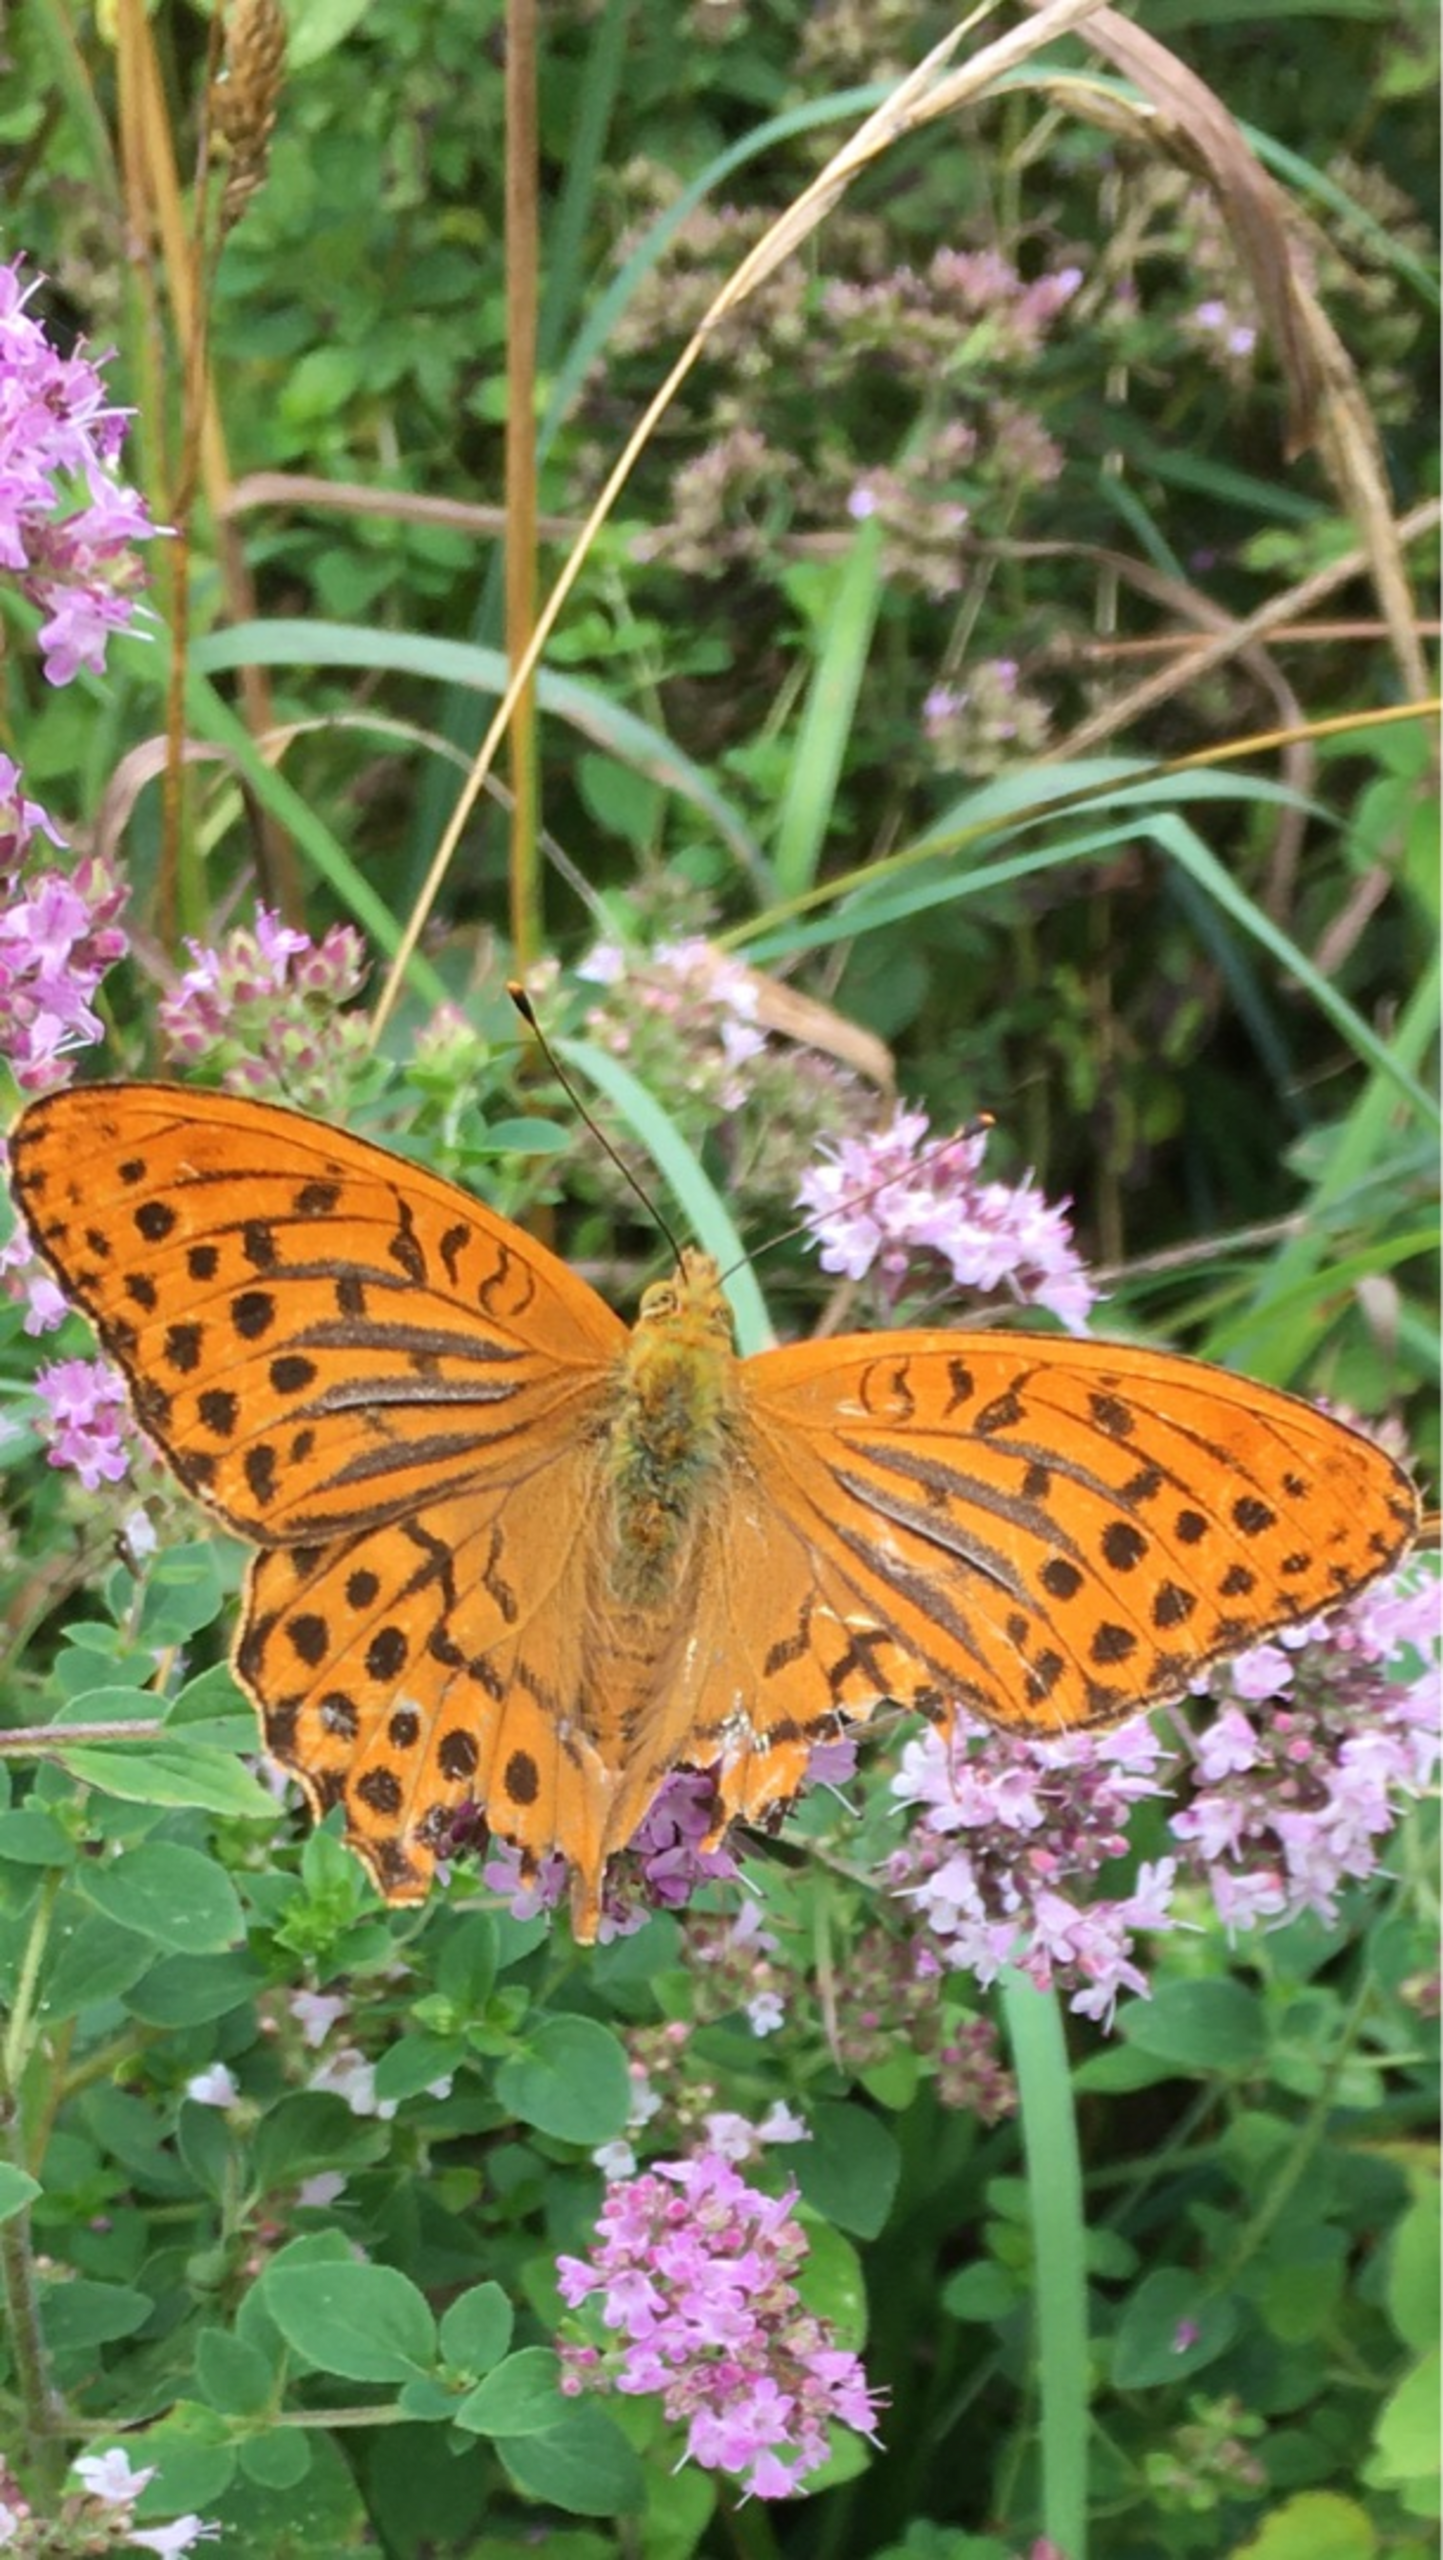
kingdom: Animalia
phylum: Arthropoda
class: Insecta
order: Lepidoptera
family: Nymphalidae
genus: Argynnis
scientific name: Argynnis paphia
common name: Kejserkåbe
